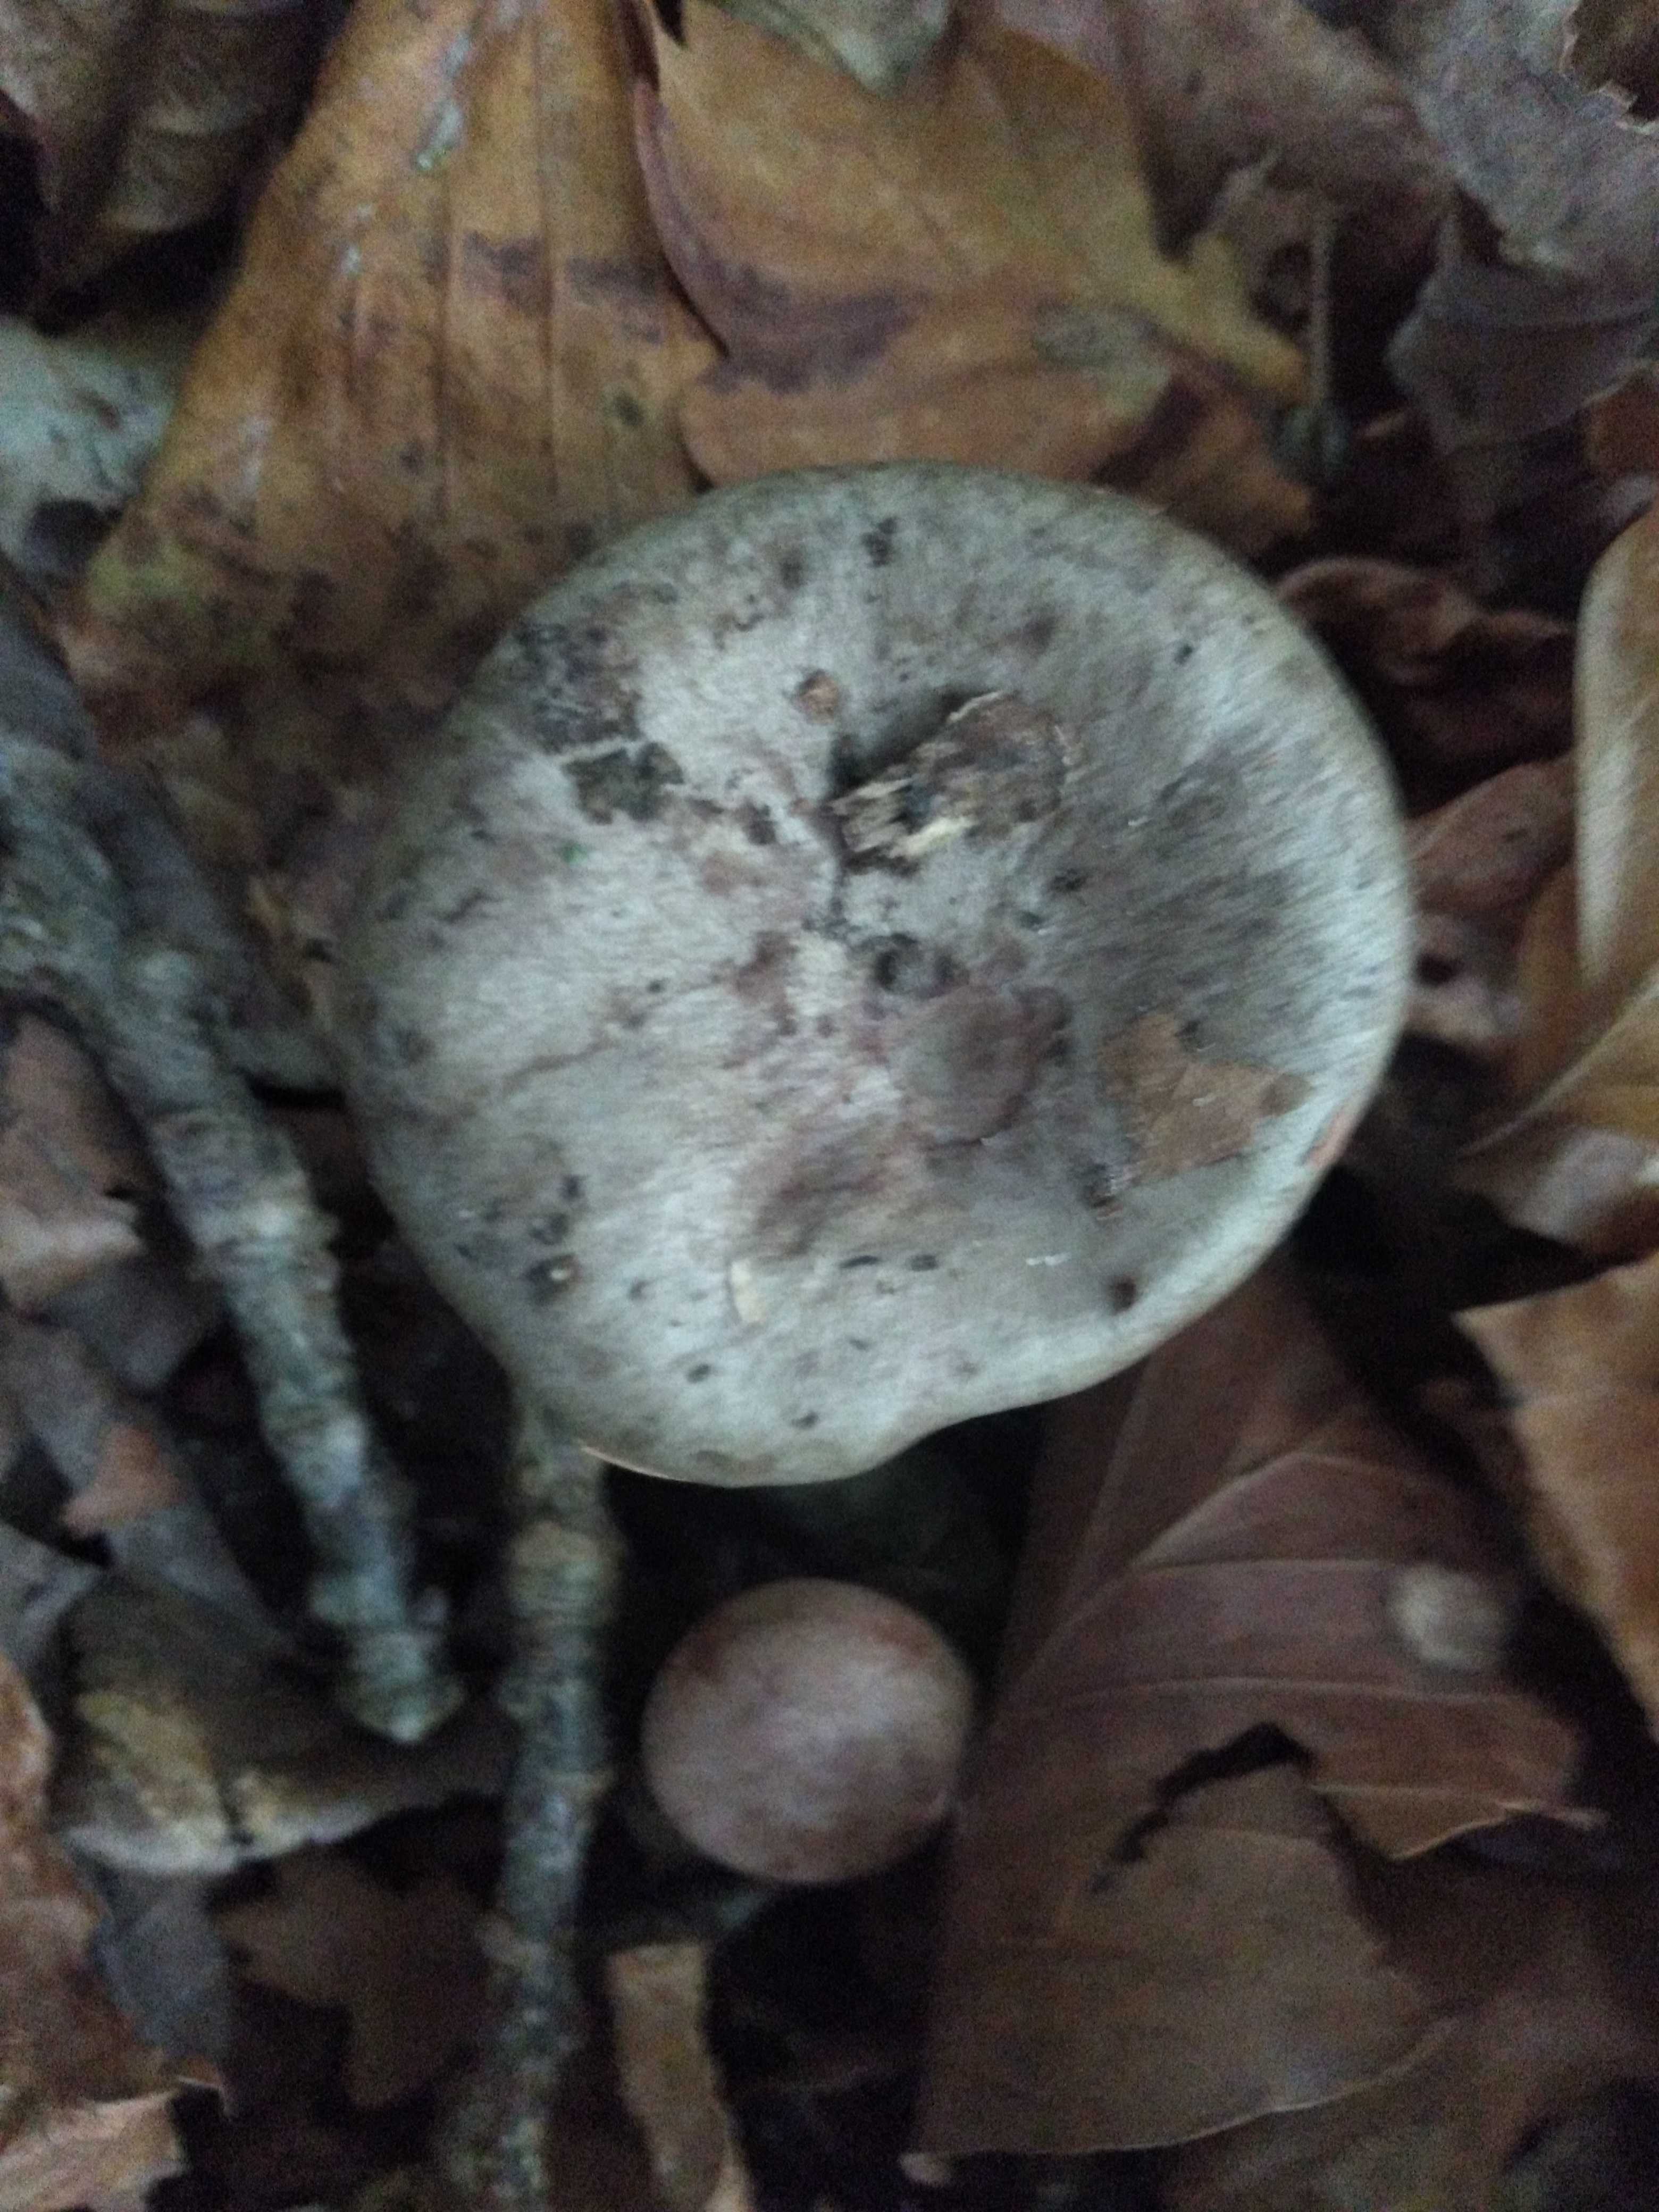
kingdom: Fungi
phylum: Basidiomycota
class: Agaricomycetes
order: Russulales
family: Russulaceae
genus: Lactarius
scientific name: Lactarius blennius
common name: dråbeplettet mælkehat
